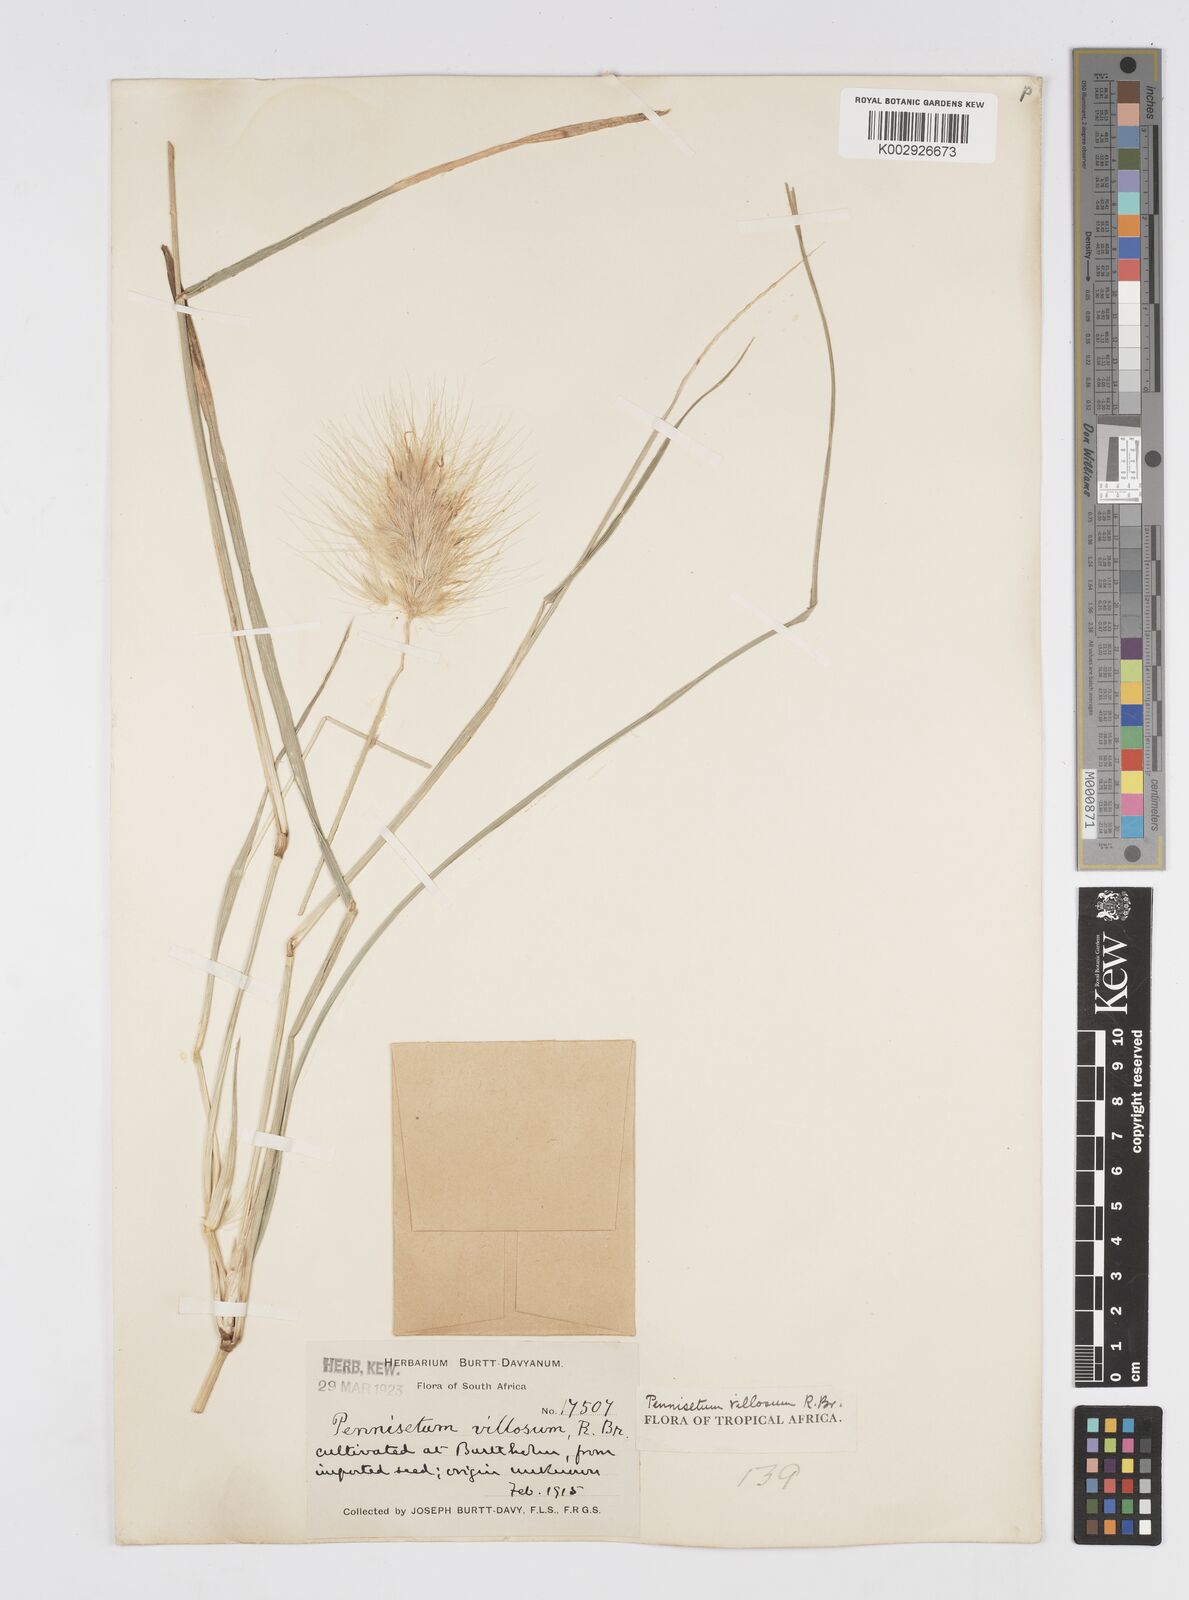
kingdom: Plantae
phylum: Tracheophyta
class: Liliopsida
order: Poales
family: Poaceae
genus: Cenchrus
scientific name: Cenchrus longisetus
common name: Feathertop
